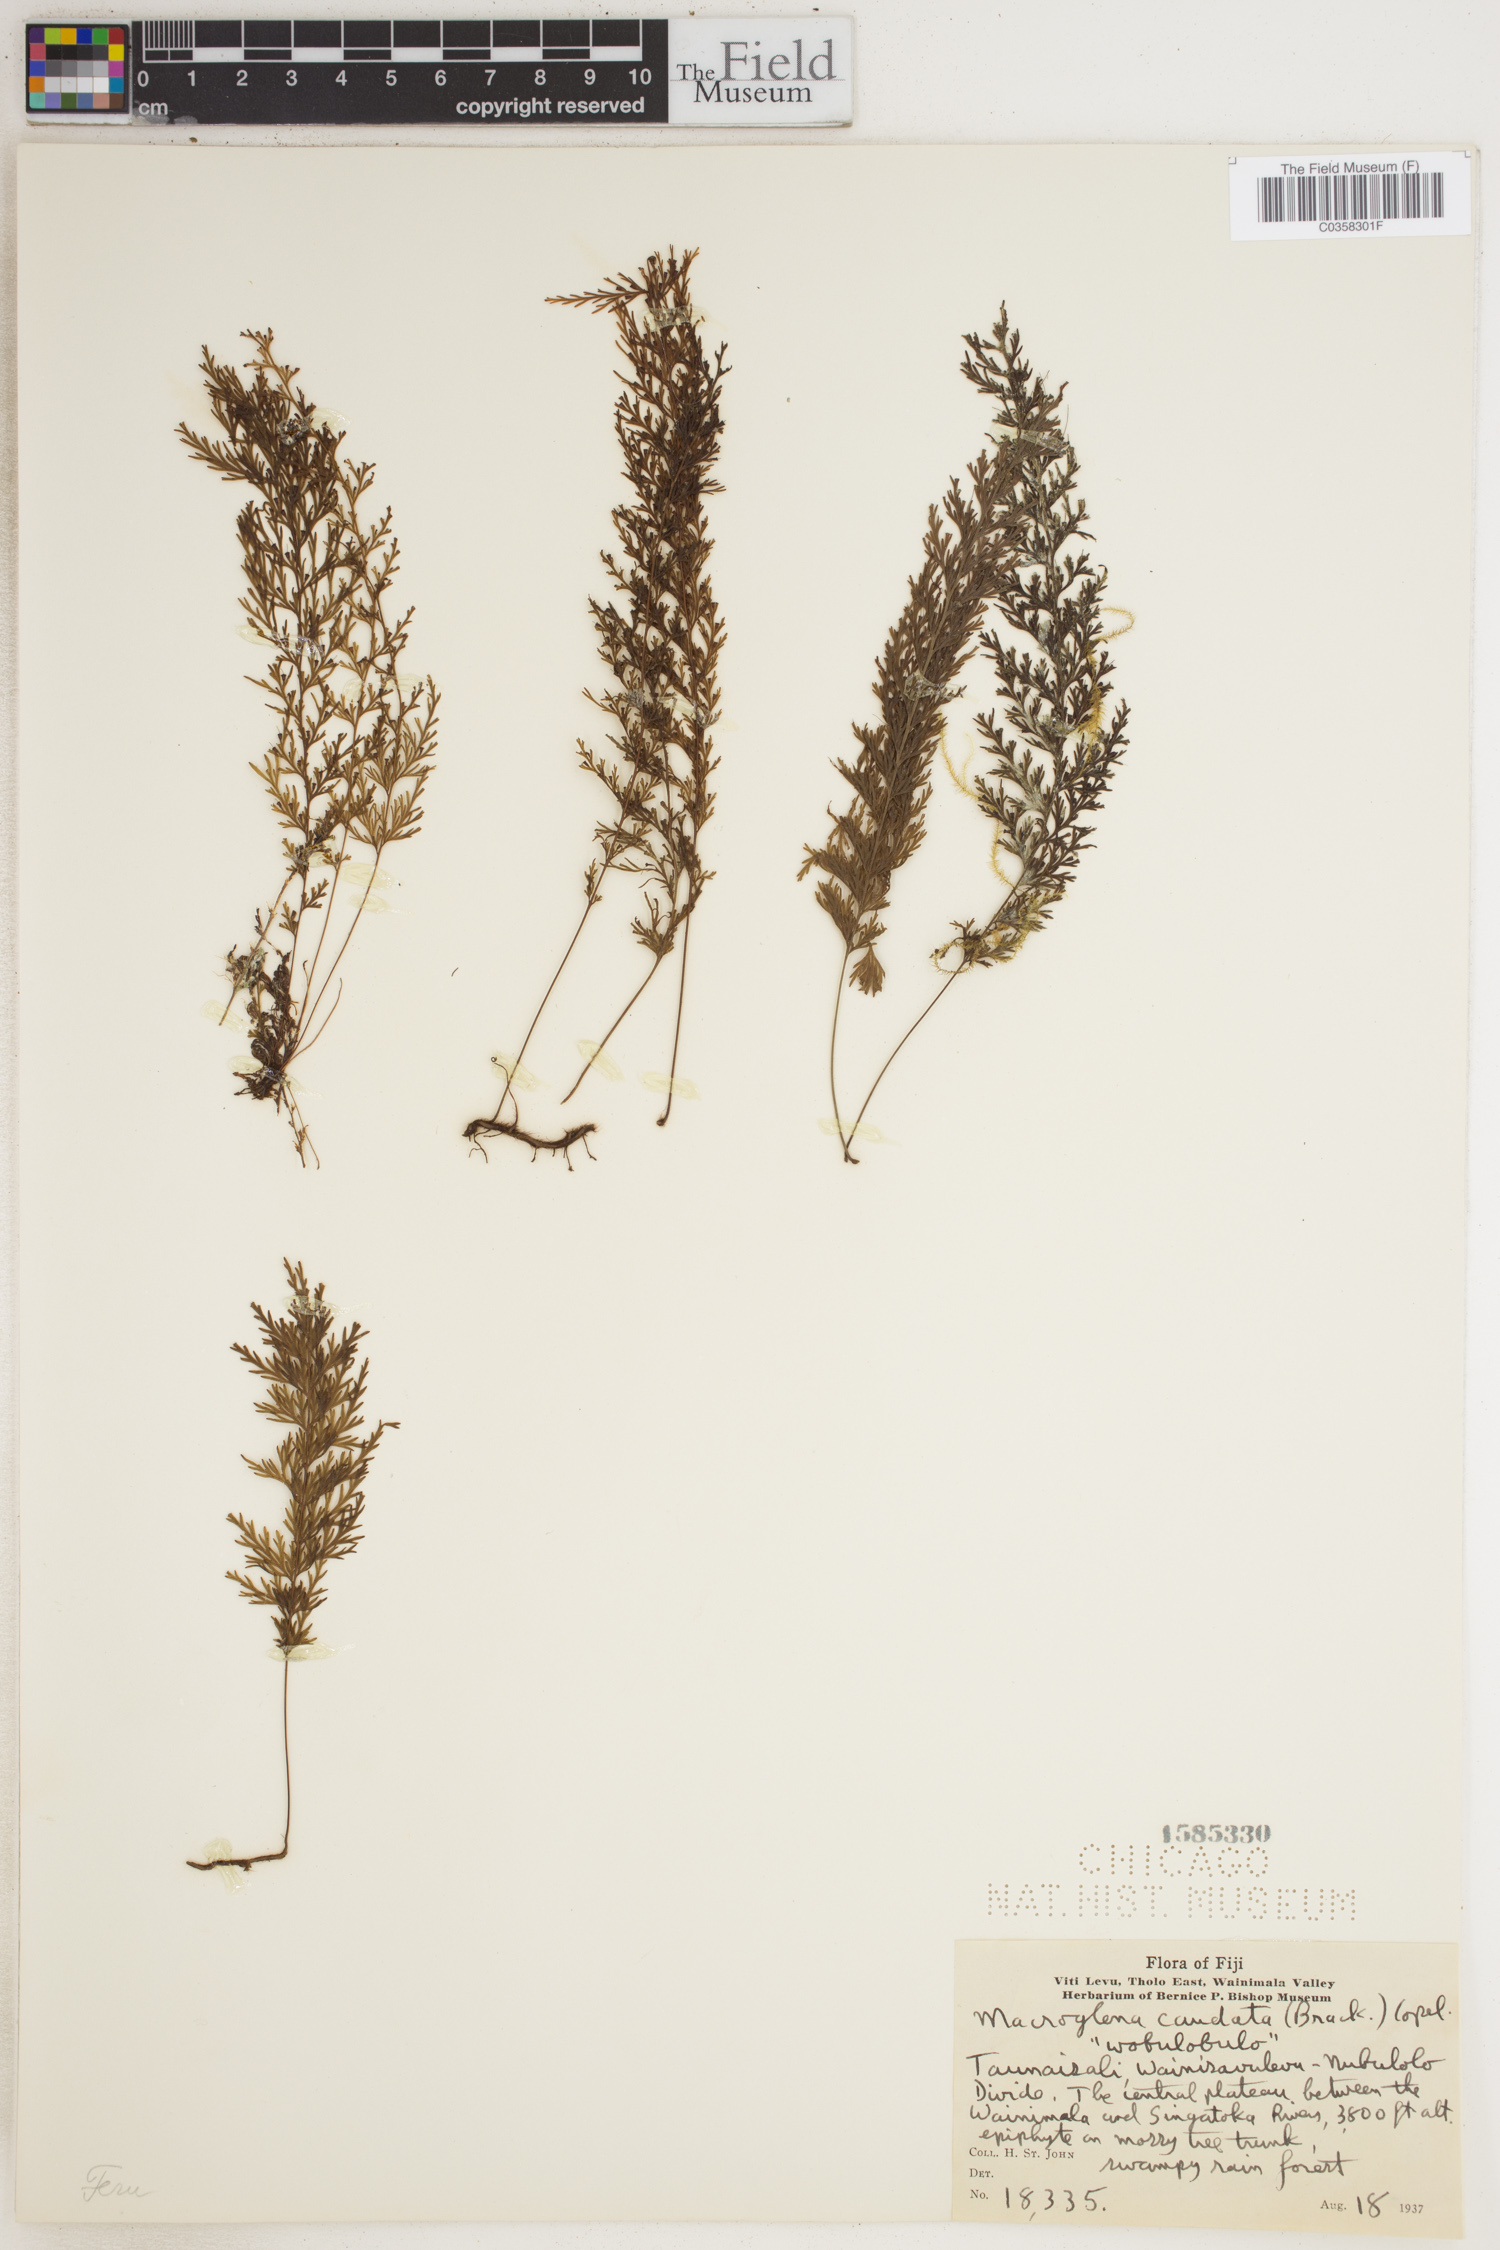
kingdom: Plantae
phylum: Tracheophyta
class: Polypodiopsida
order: Hymenophyllales
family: Hymenophyllaceae
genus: Abrodictyum
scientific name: Abrodictyum caudatum
